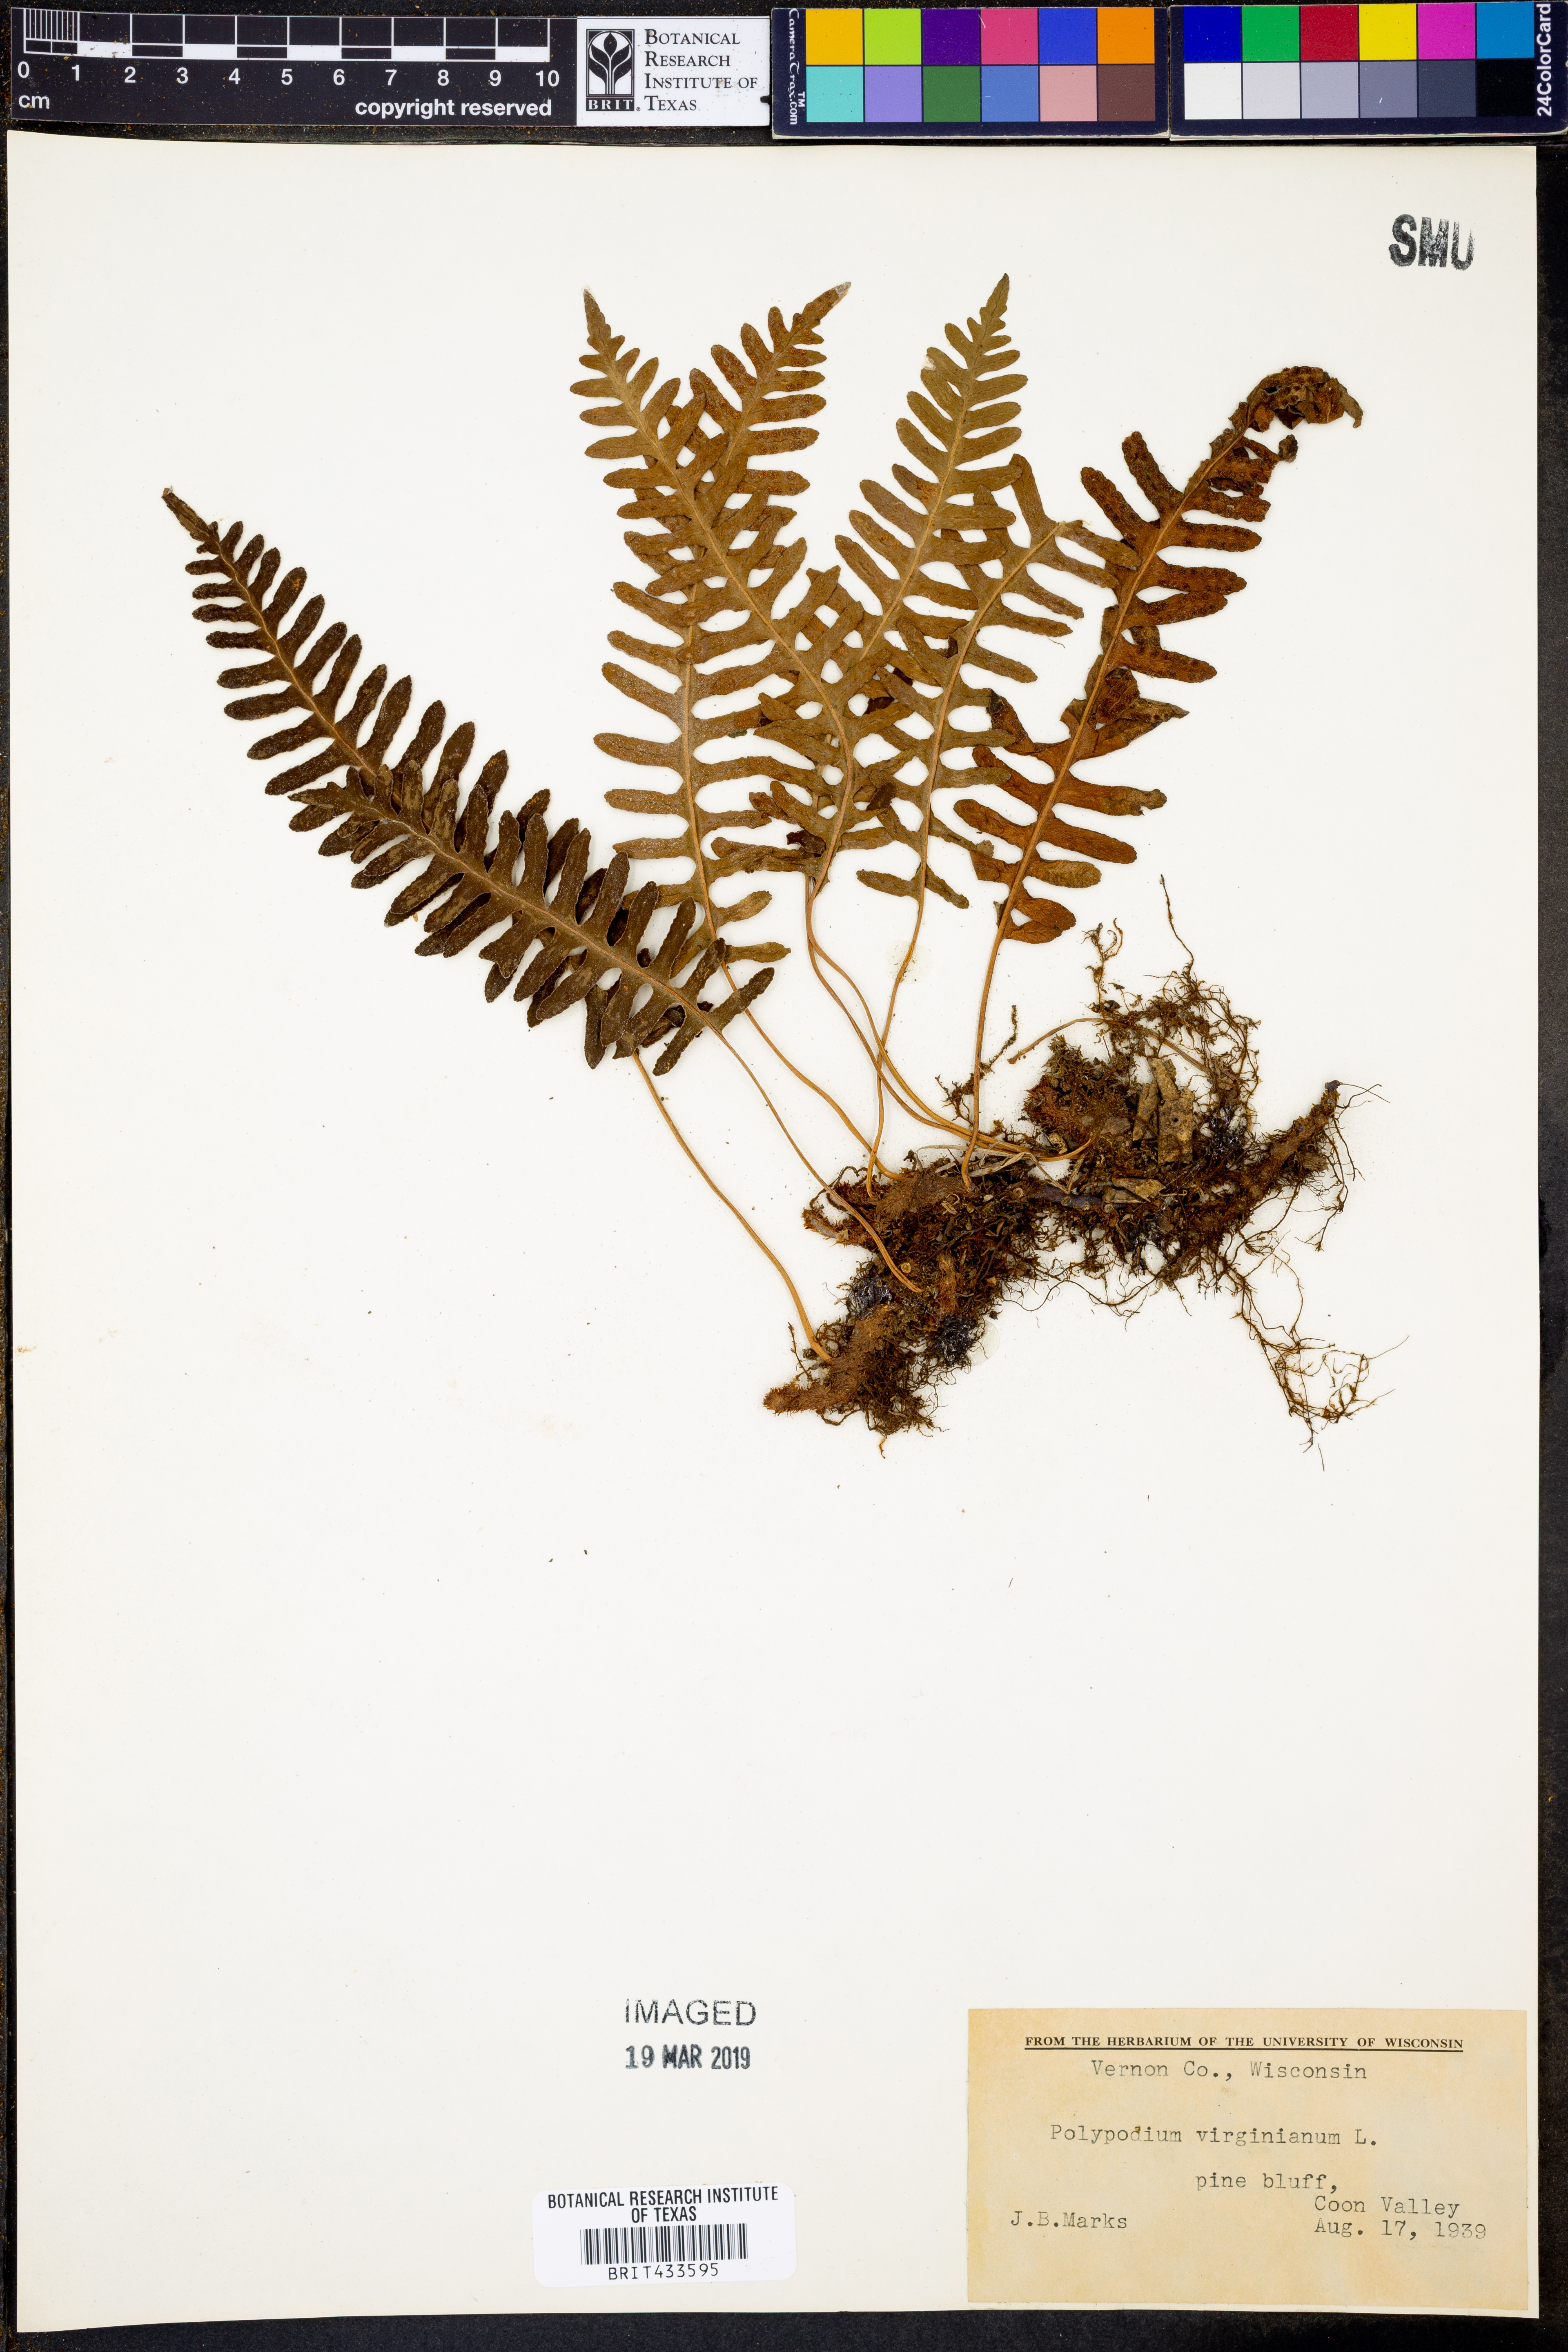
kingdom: Plantae
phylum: Tracheophyta
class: Polypodiopsida
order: Polypodiales
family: Polypodiaceae
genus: Polypodium
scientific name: Polypodium virginianum
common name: American wall fern
